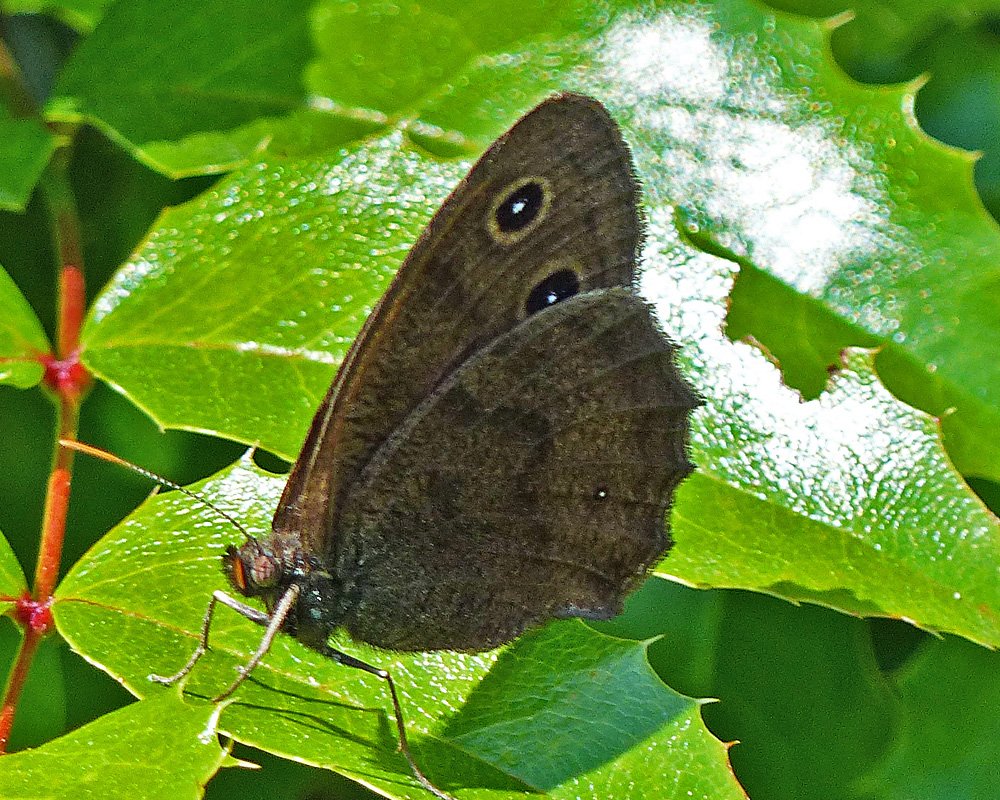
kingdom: Animalia
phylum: Arthropoda
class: Insecta
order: Lepidoptera
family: Nymphalidae
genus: Cercyonis
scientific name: Cercyonis pegala
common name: Common Wood-Nymph
